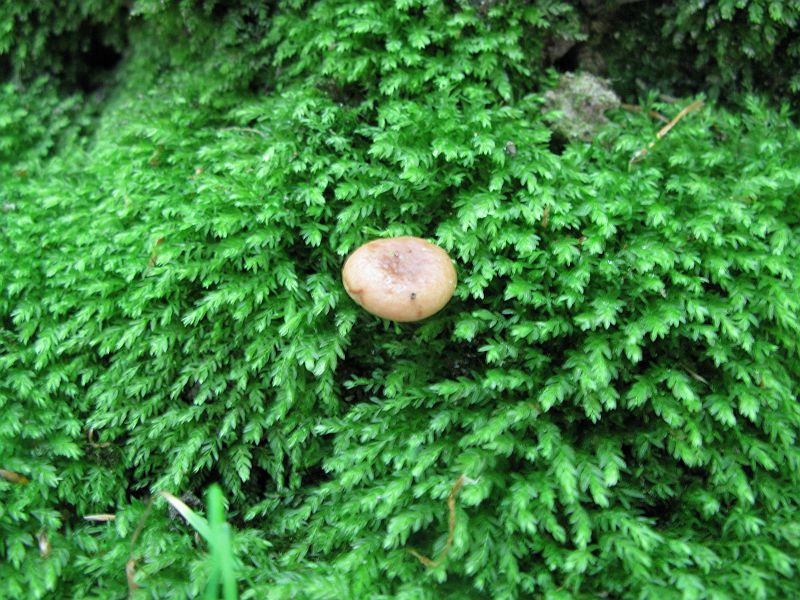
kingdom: Fungi
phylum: Basidiomycota
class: Agaricomycetes
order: Russulales
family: Russulaceae
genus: Lactarius
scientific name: Lactarius subdulcis
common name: sødlig mælkehat
